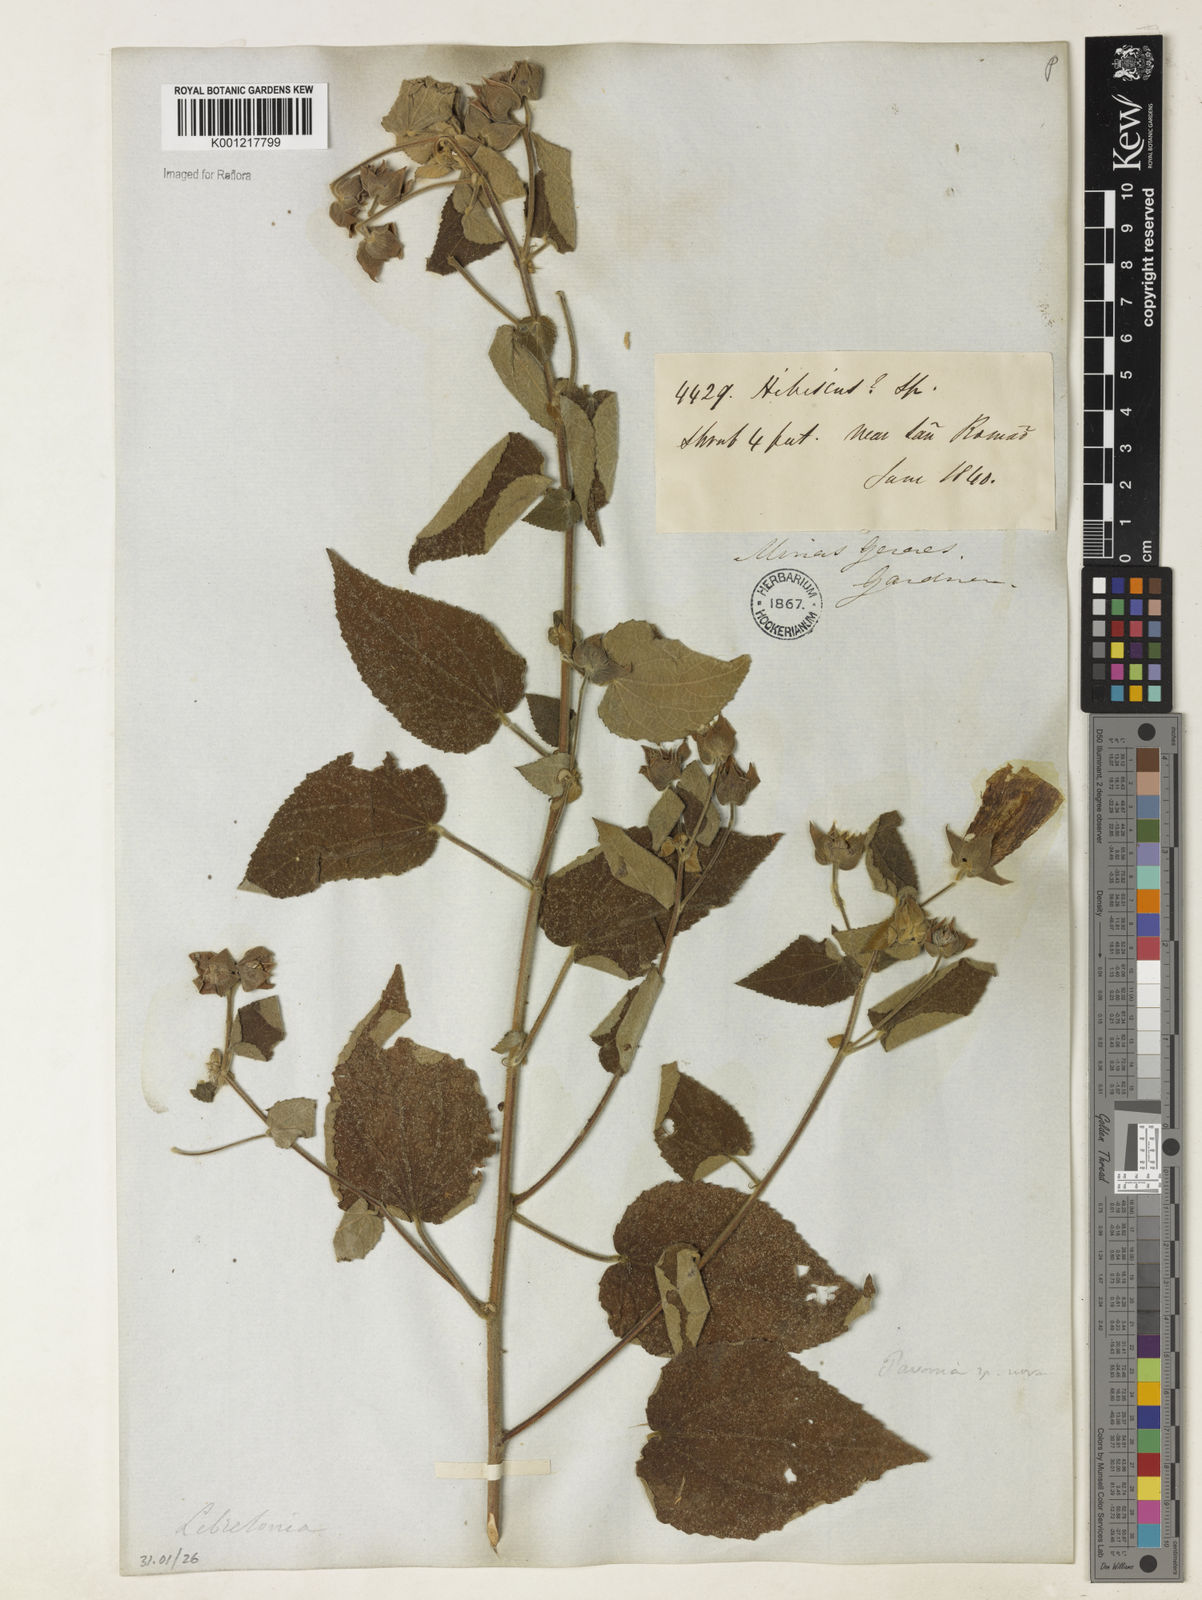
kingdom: Plantae
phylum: Tracheophyta
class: Magnoliopsida
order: Malvales
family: Malvaceae
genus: Pavonia
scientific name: Pavonia
